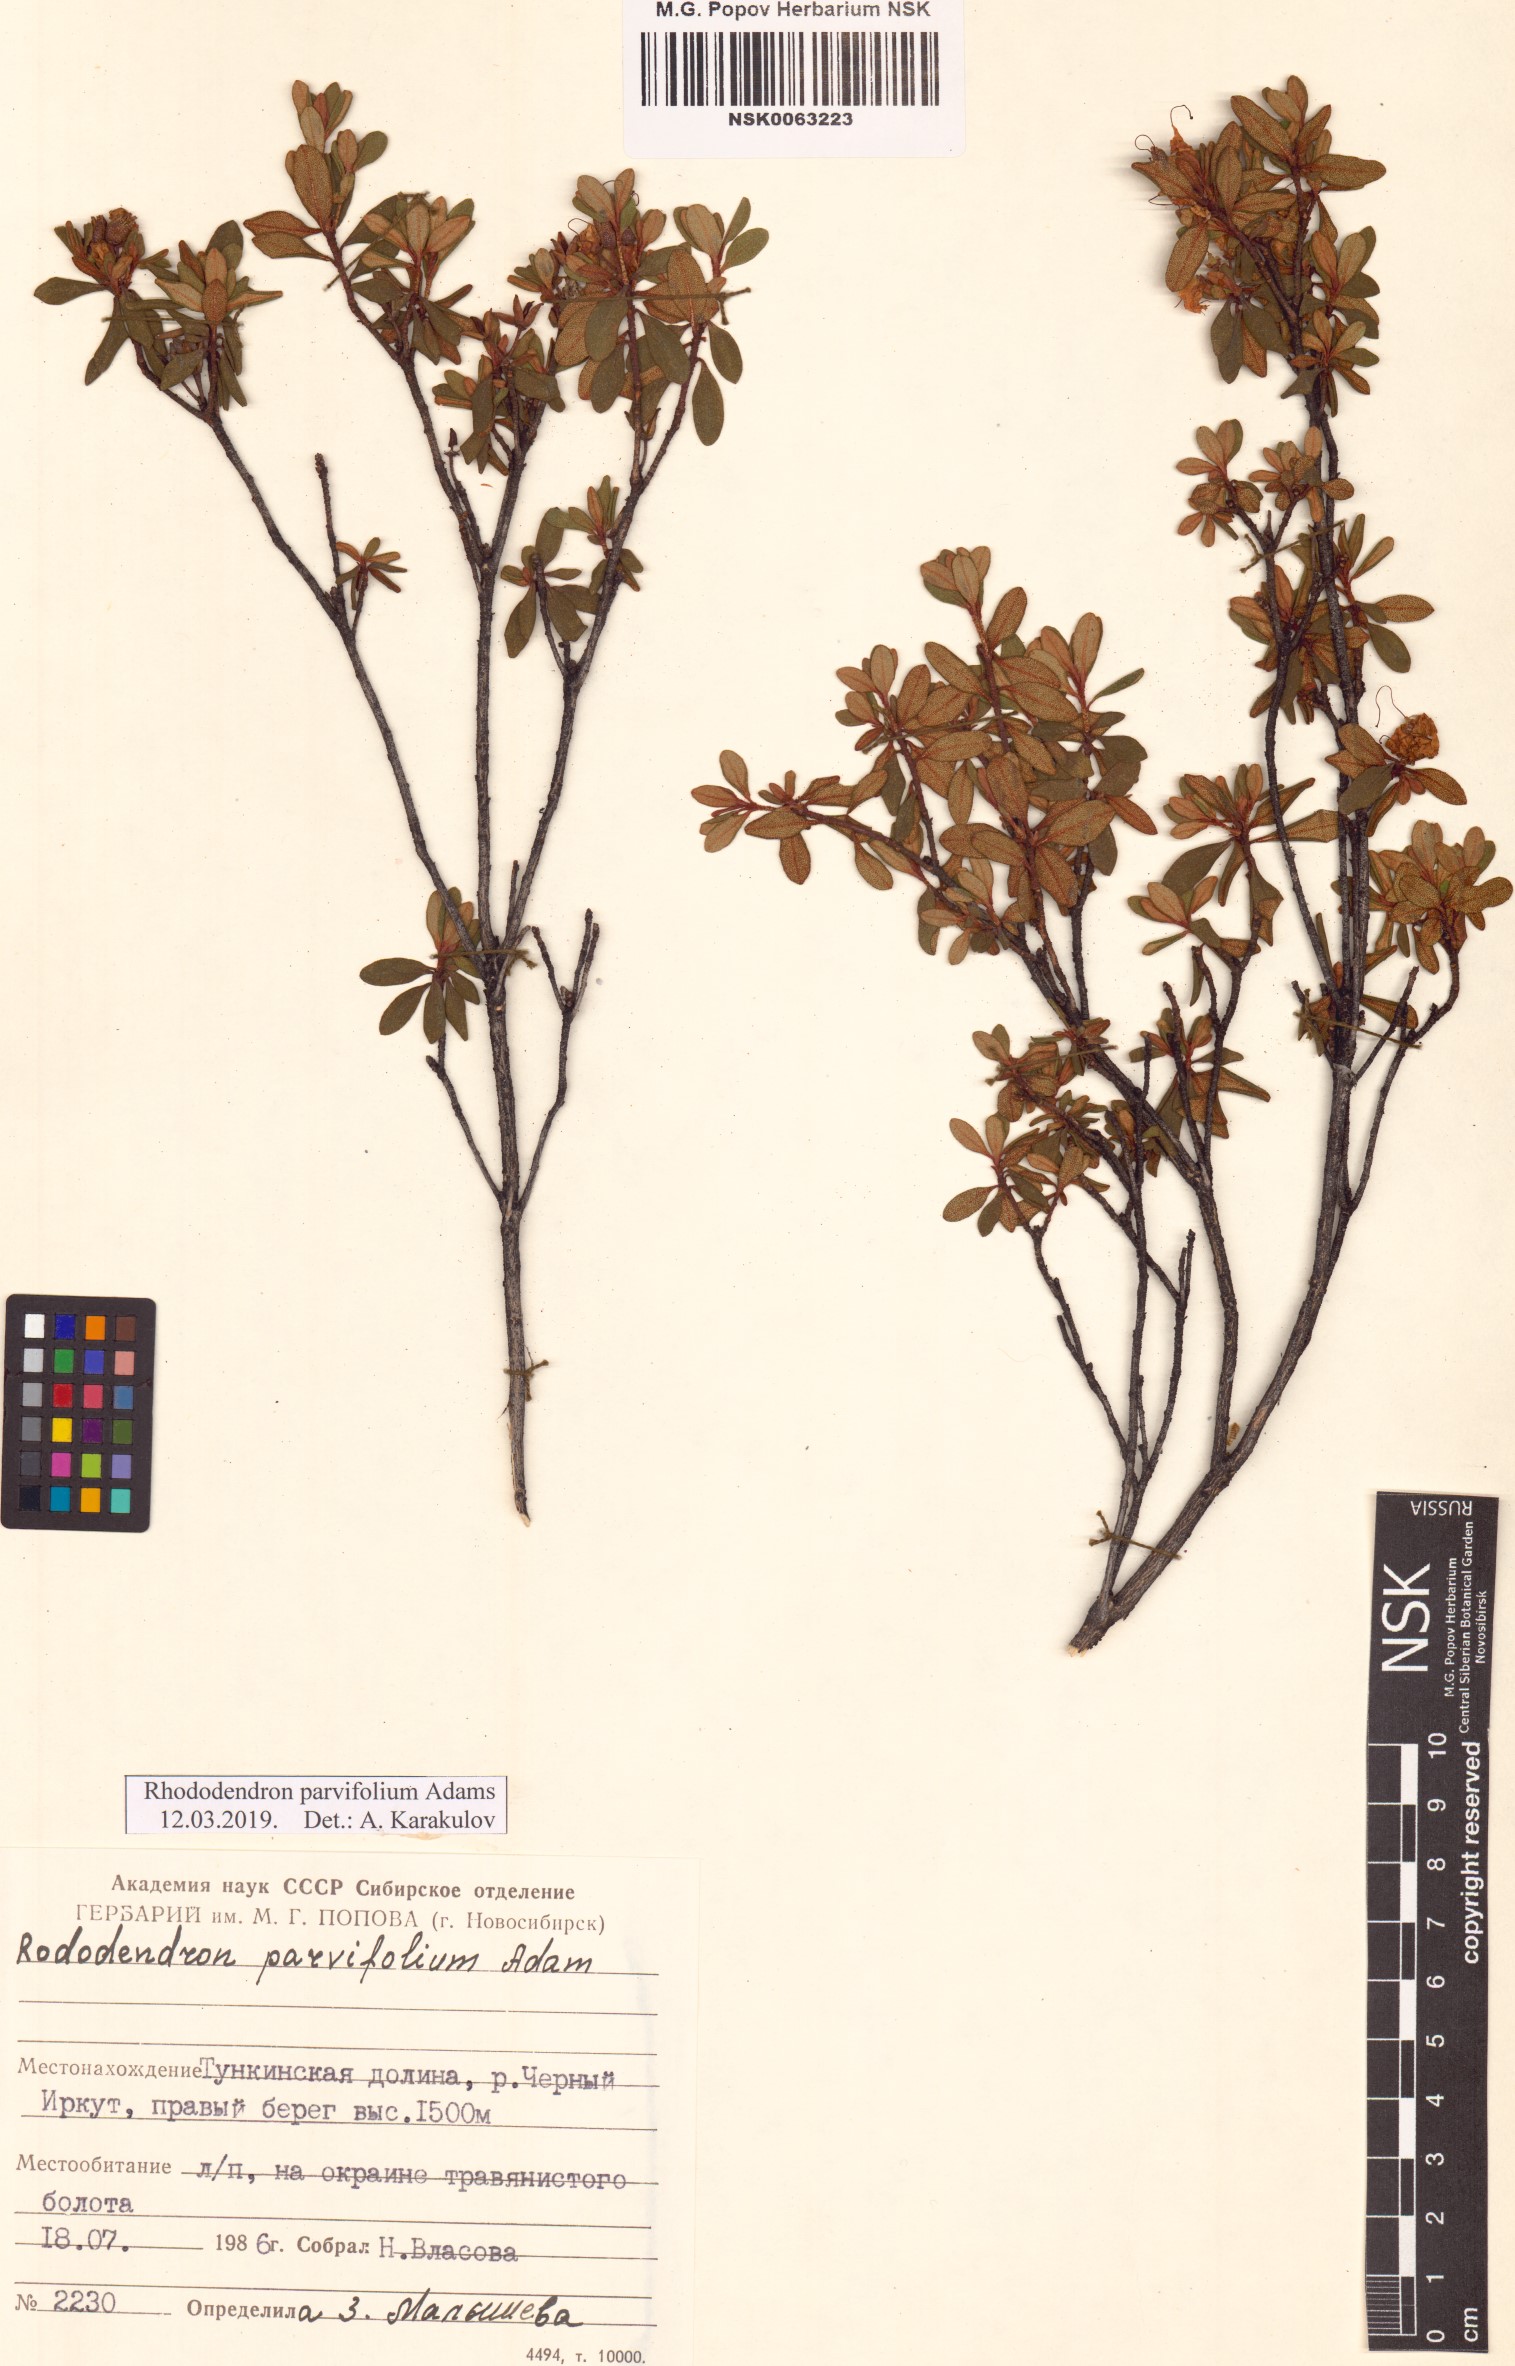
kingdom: Plantae
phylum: Tracheophyta
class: Magnoliopsida
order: Ericales
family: Ericaceae
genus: Rhododendron
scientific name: Rhododendron parvifolium
